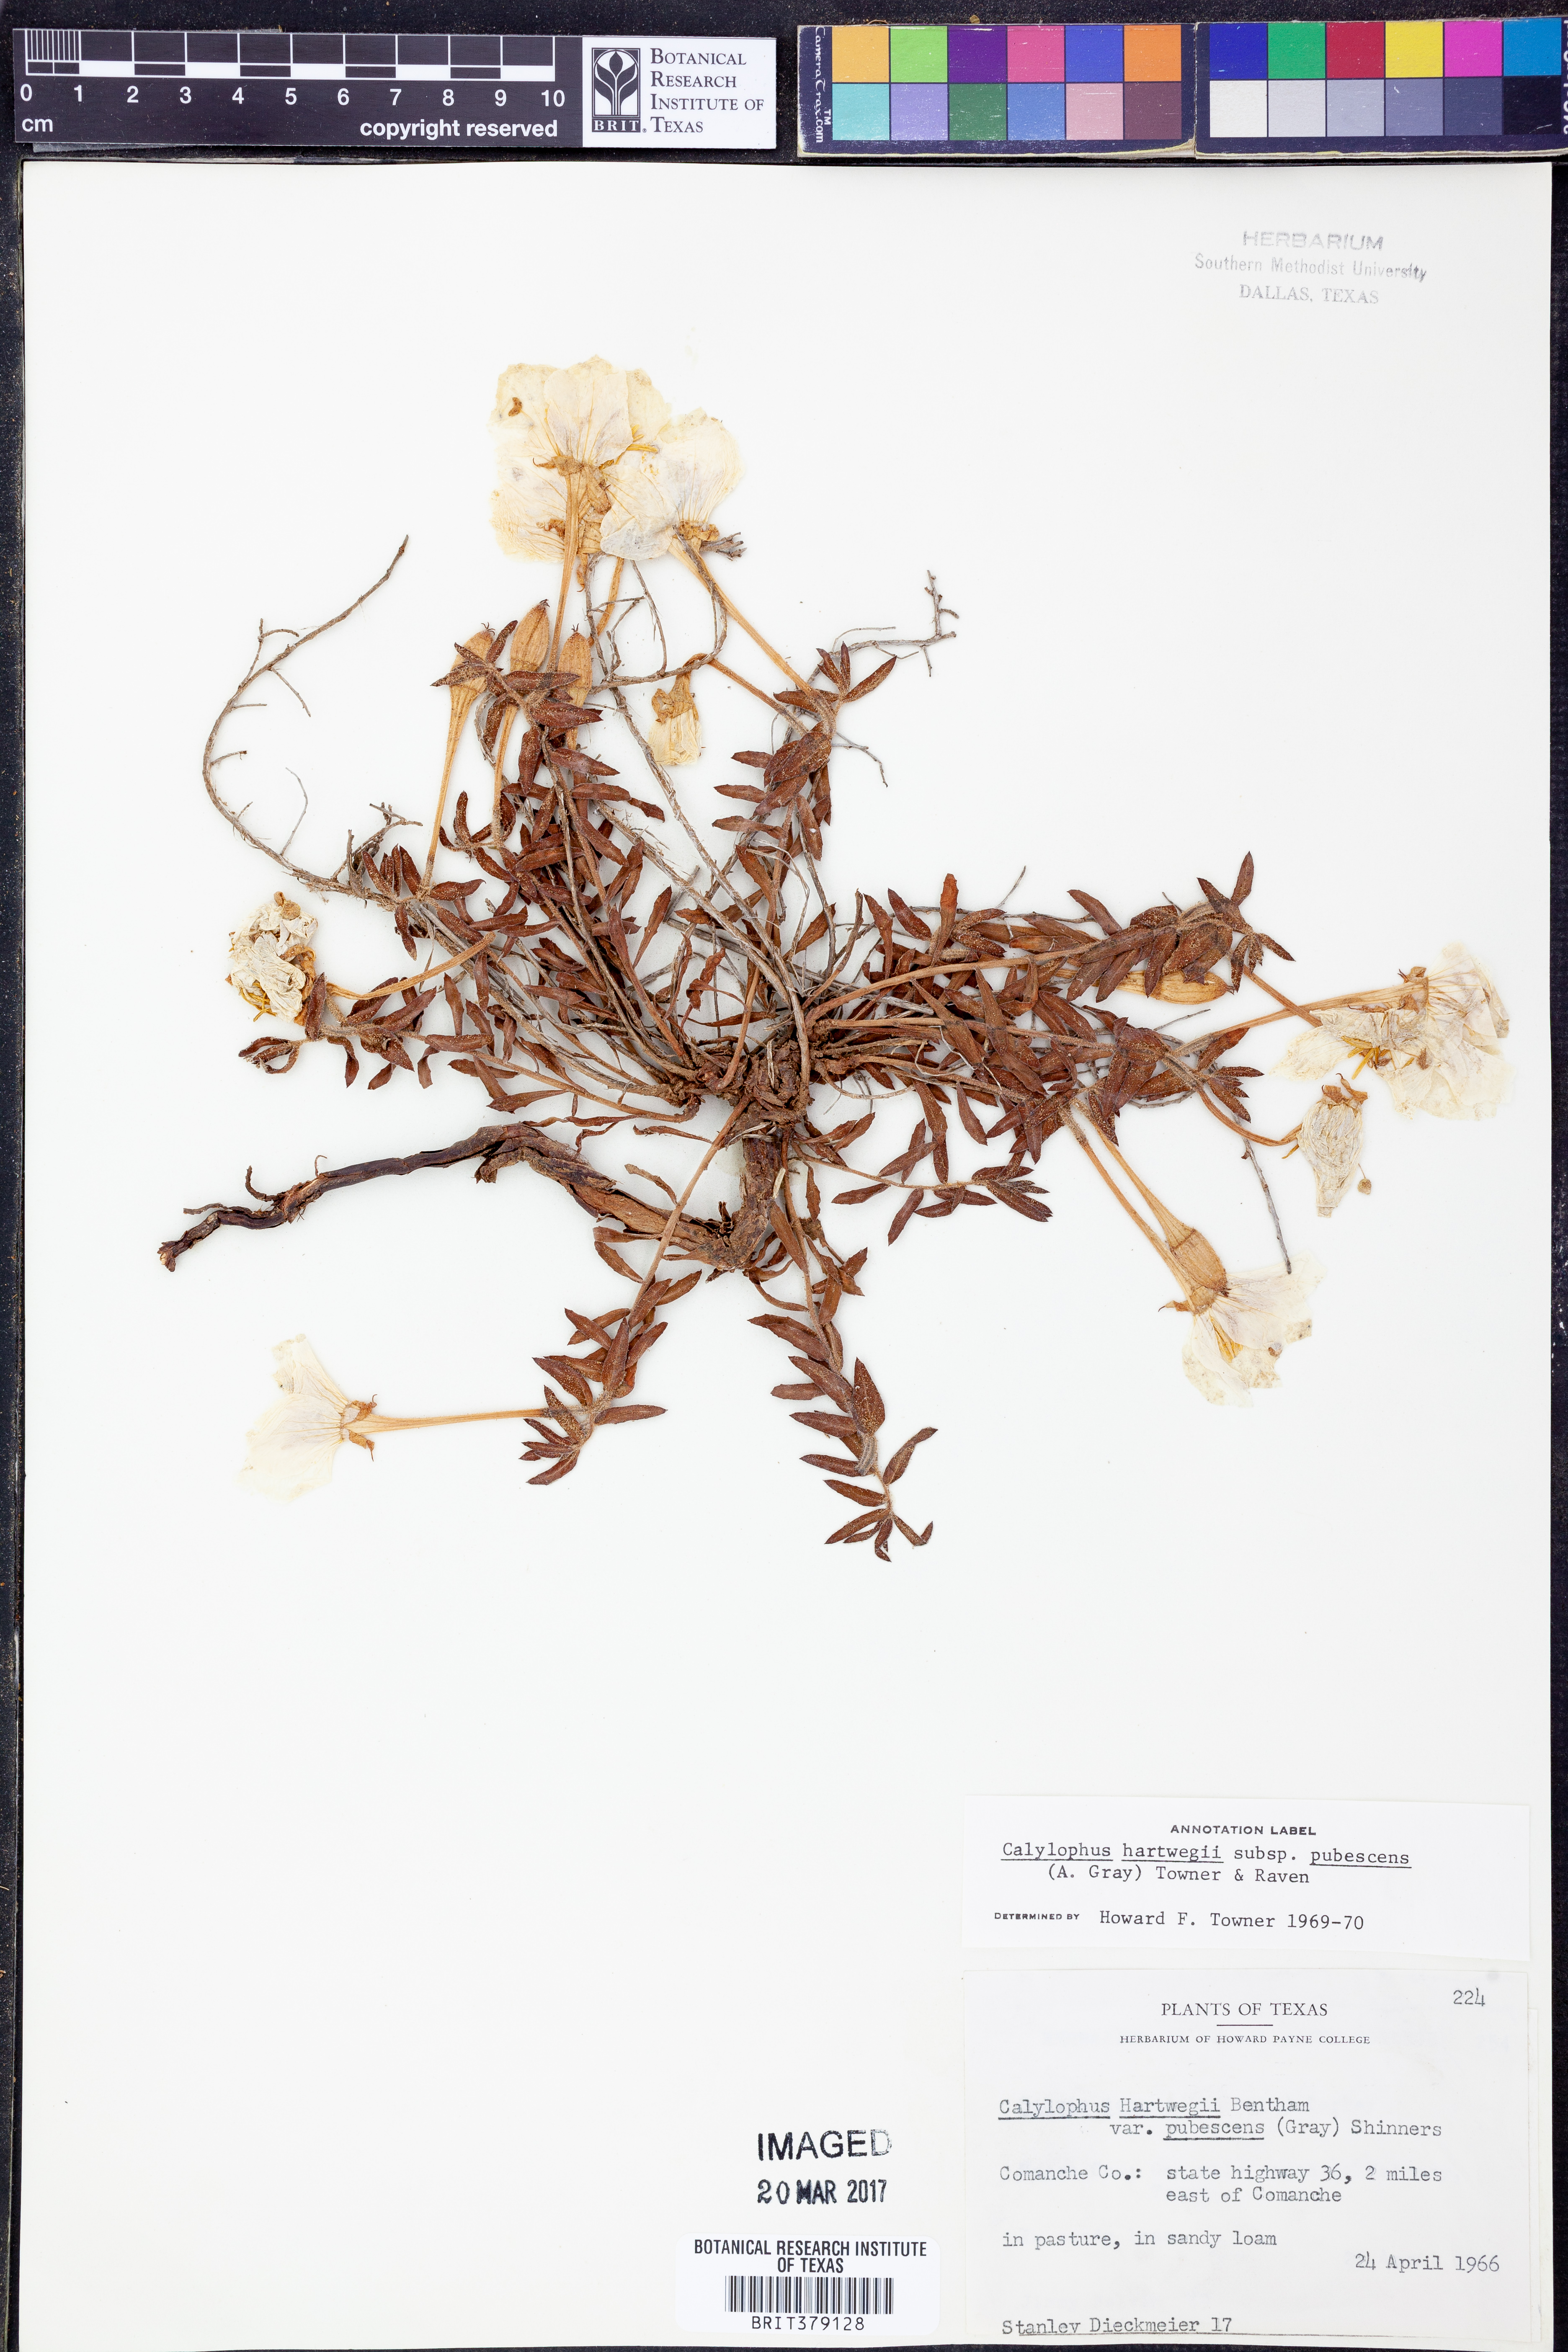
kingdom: Plantae
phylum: Tracheophyta
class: Magnoliopsida
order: Myrtales
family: Onagraceae
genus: Oenothera
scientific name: Oenothera hartwegii
